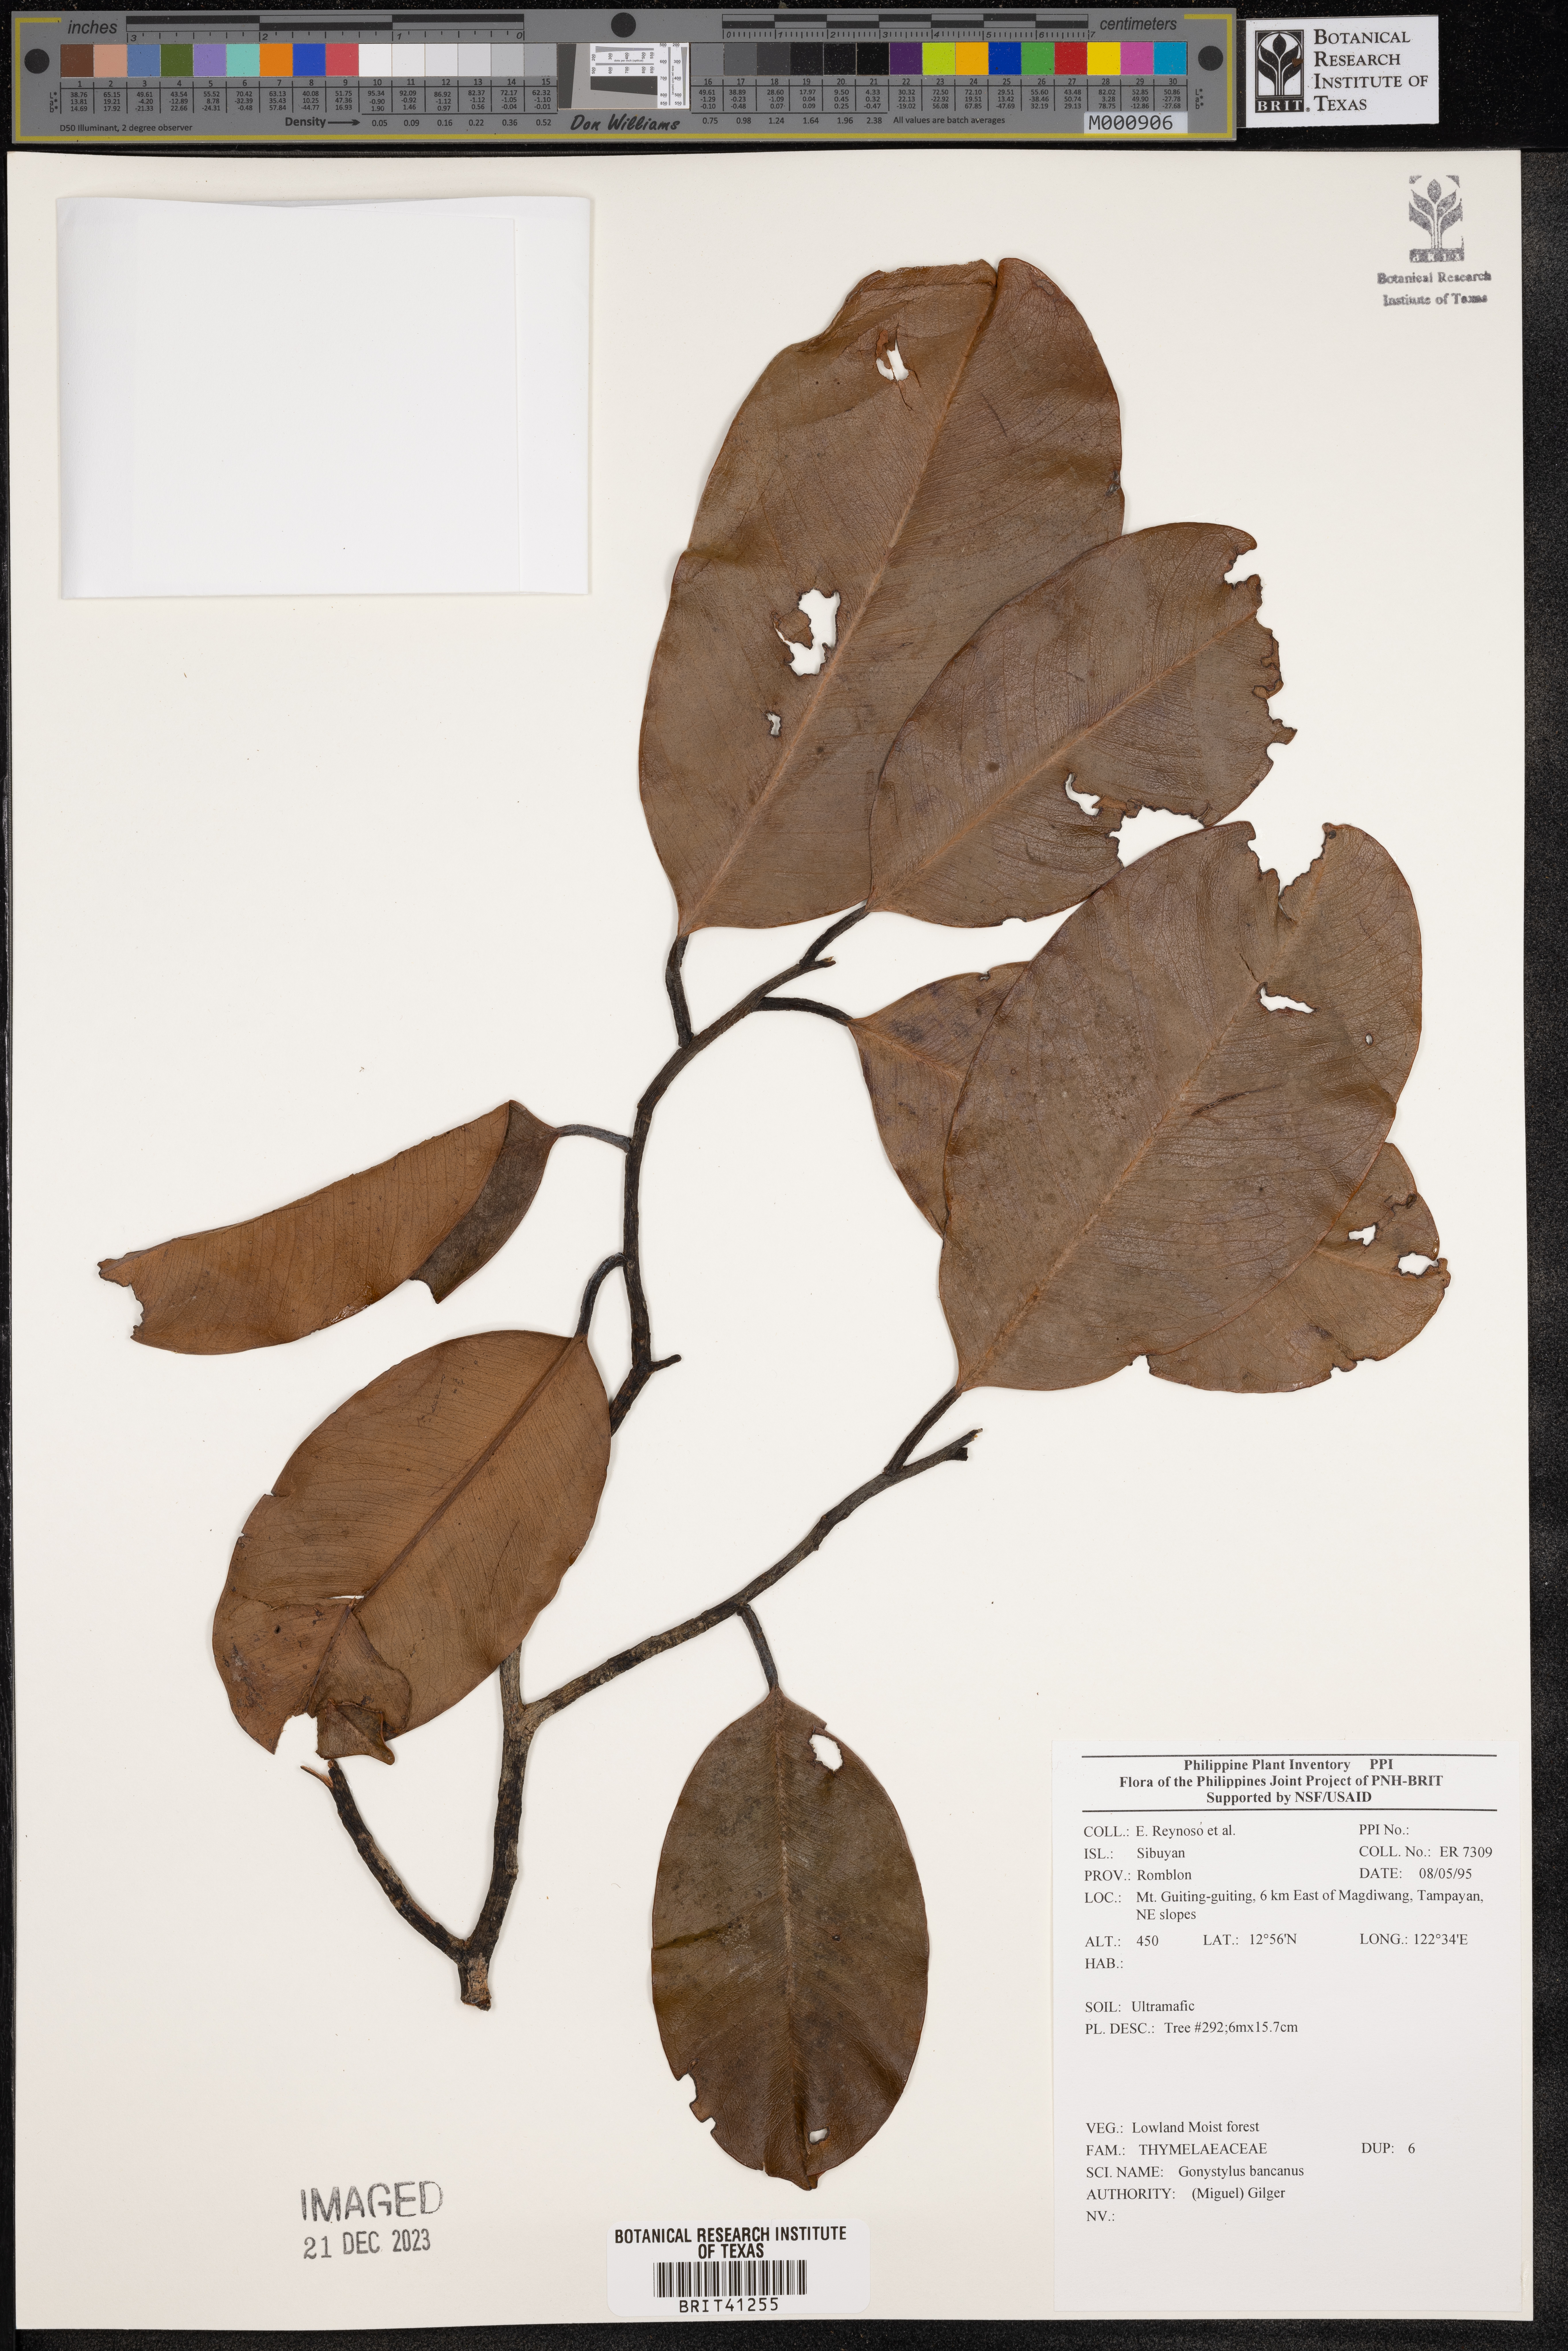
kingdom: Plantae
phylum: Tracheophyta
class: Magnoliopsida
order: Malvales
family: Thymelaeaceae
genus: Gonystylus
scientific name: Gonystylus bancanus
